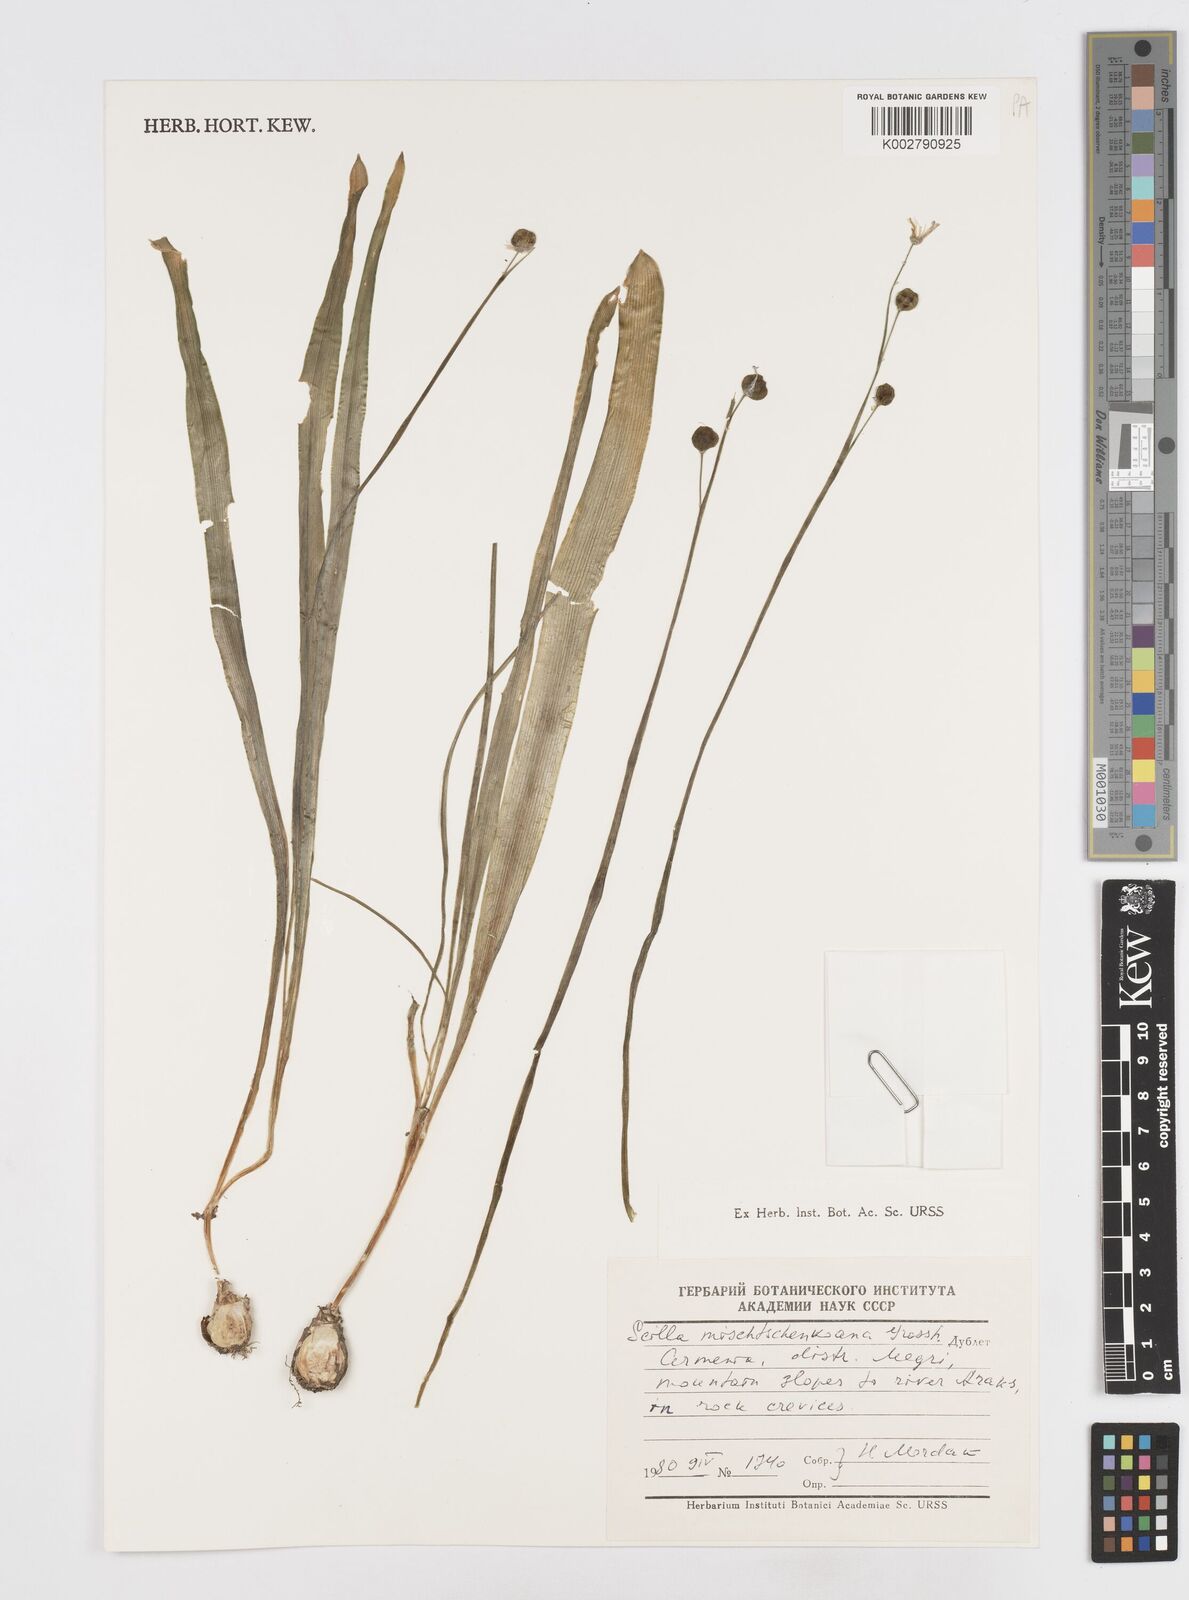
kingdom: Plantae
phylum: Tracheophyta
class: Liliopsida
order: Asparagales
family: Asparagaceae
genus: Scilla
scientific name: Scilla mischtschenkoana
